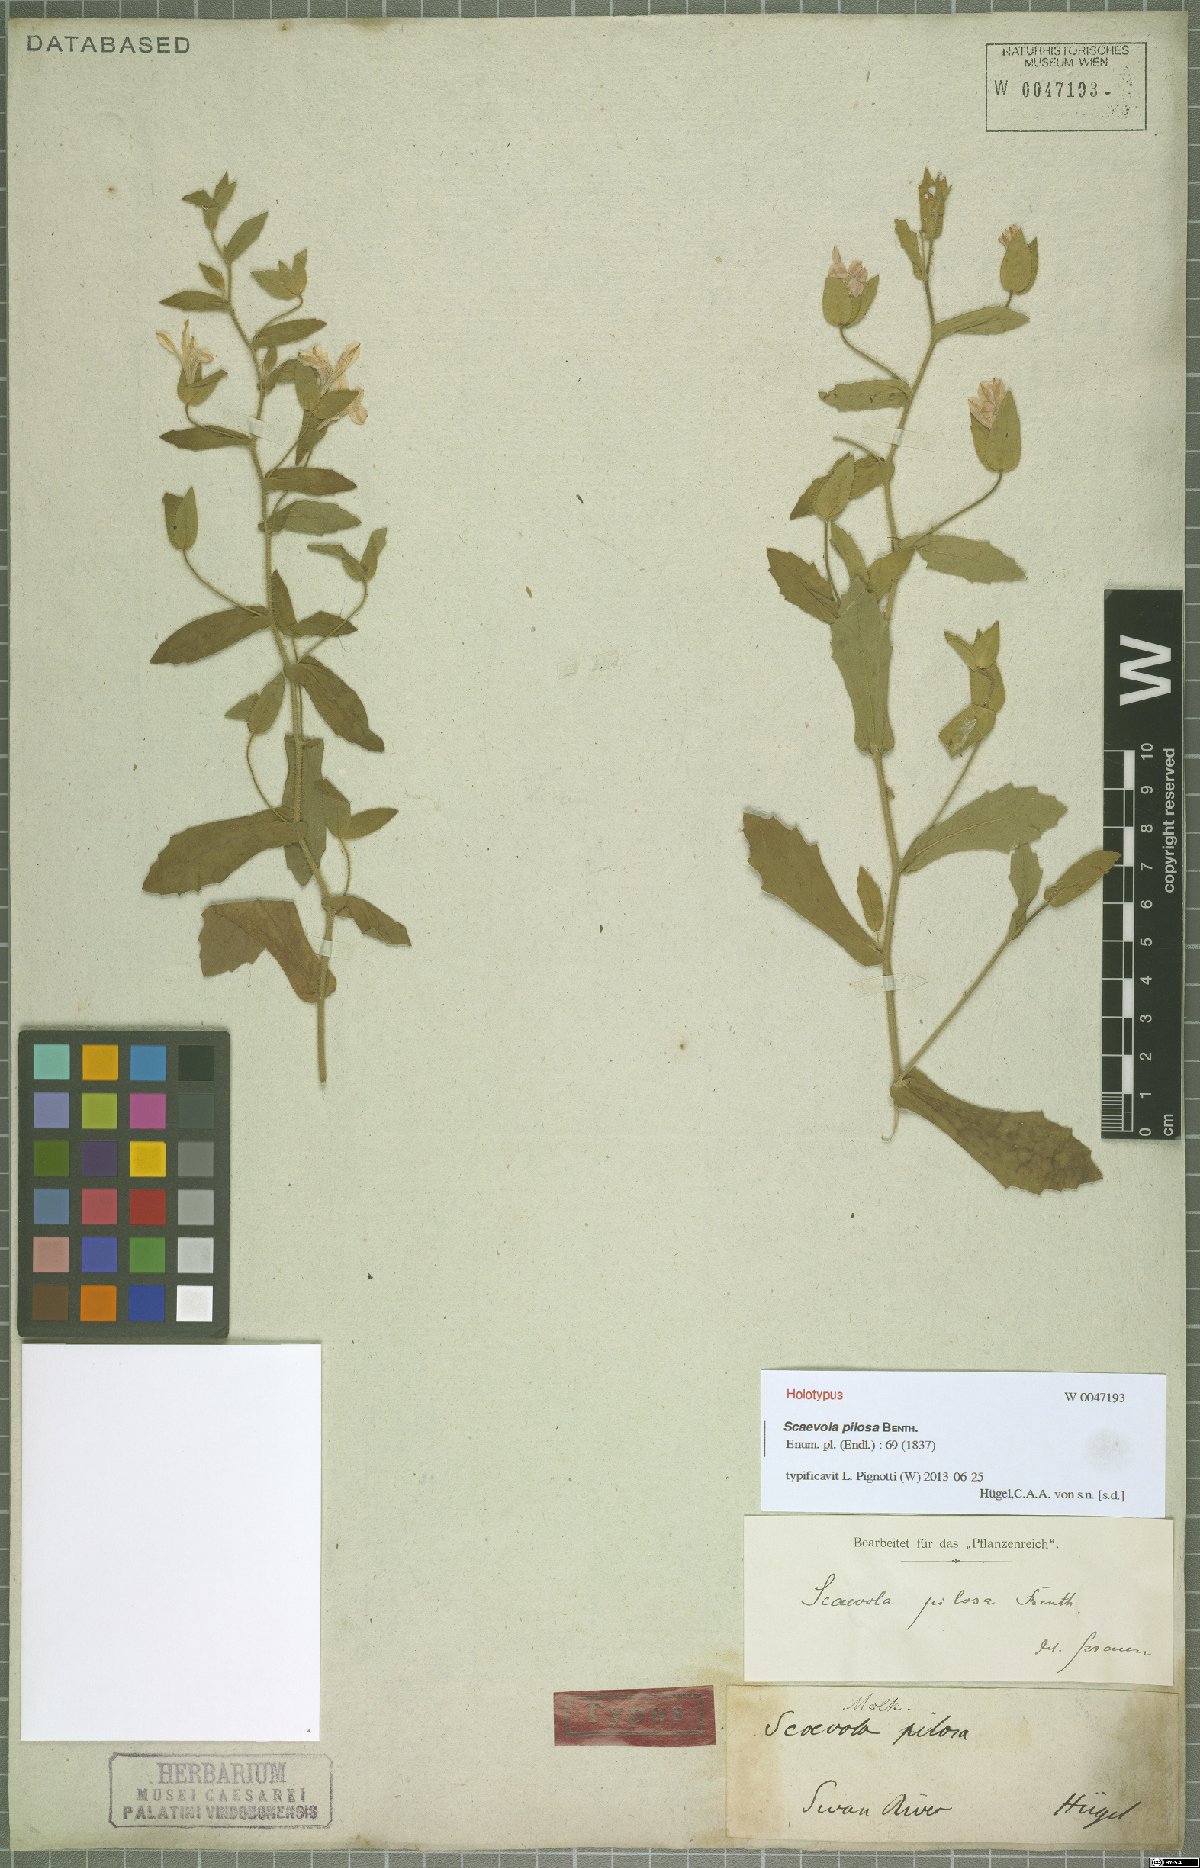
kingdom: Plantae
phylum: Tracheophyta
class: Magnoliopsida
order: Asterales
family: Goodeniaceae
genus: Scaevola
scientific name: Scaevola pilosa
